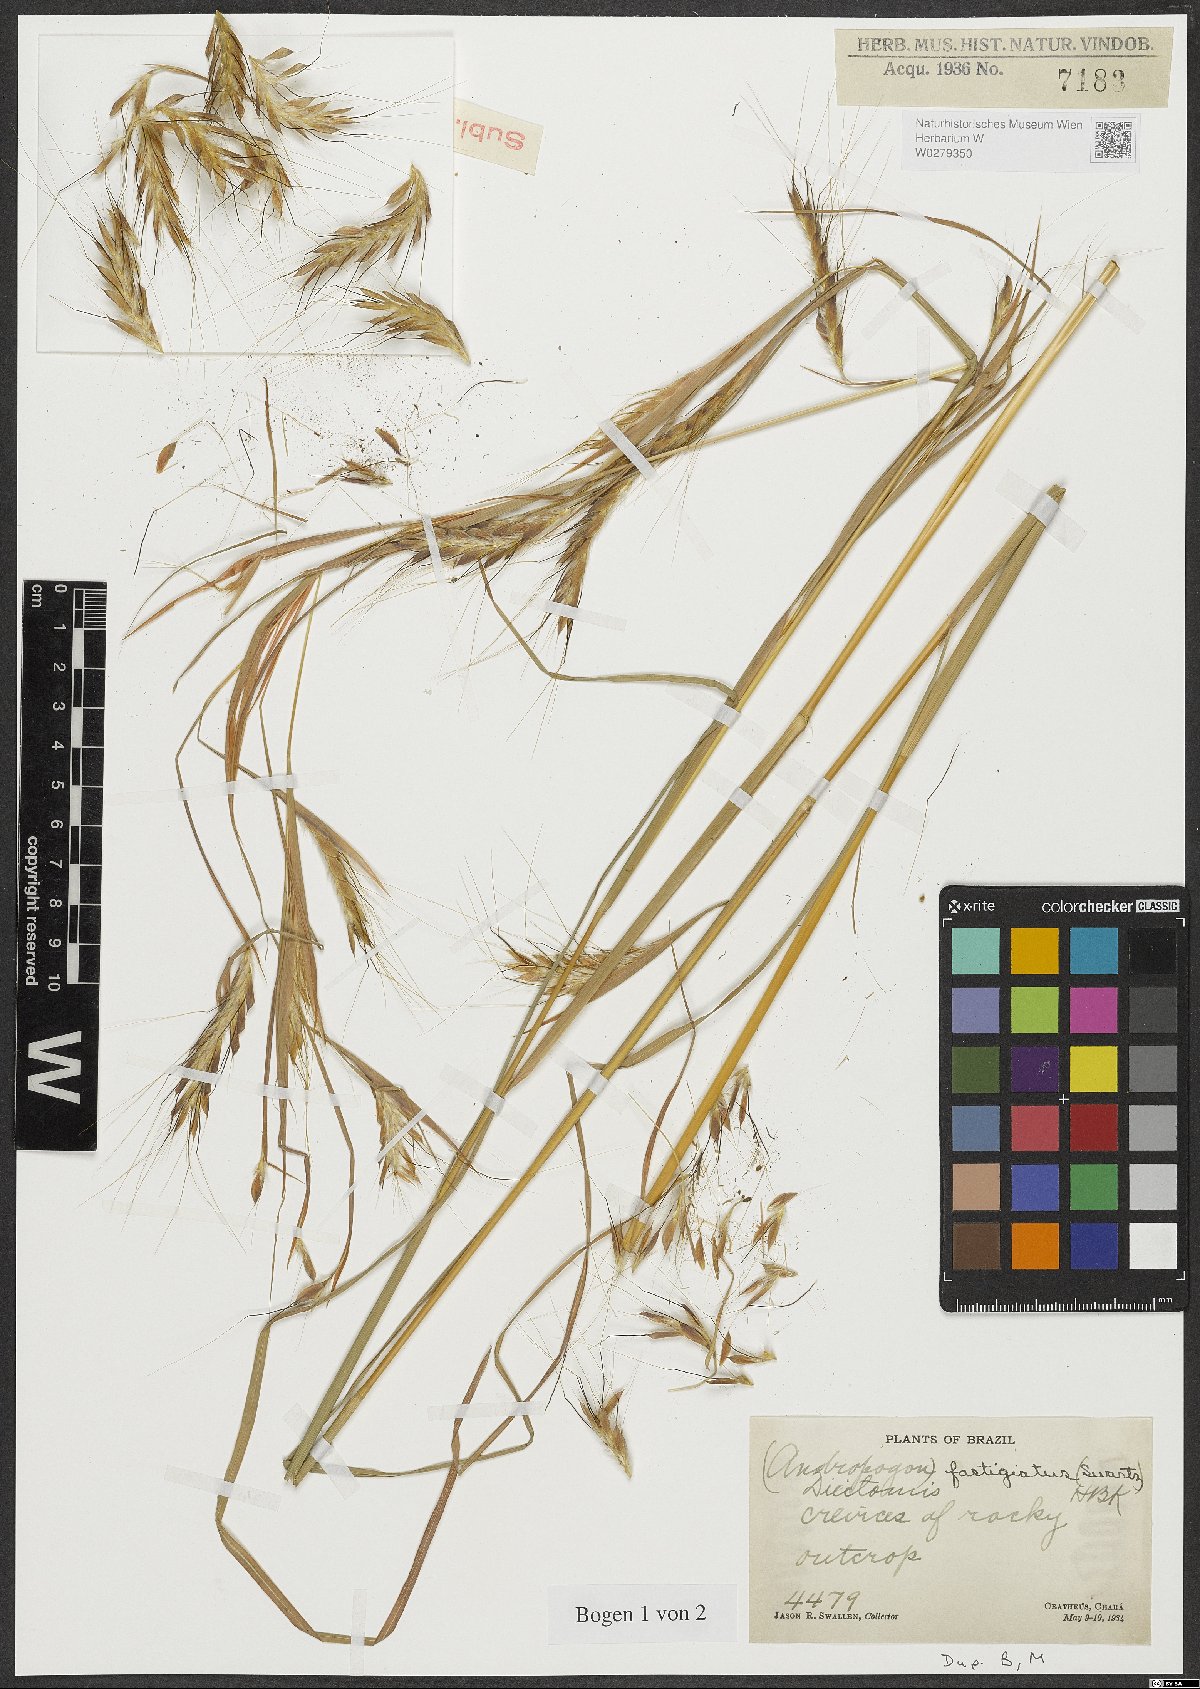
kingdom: Plantae
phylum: Tracheophyta
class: Liliopsida
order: Poales
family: Poaceae
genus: Diectomis
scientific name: Diectomis fastigiata
